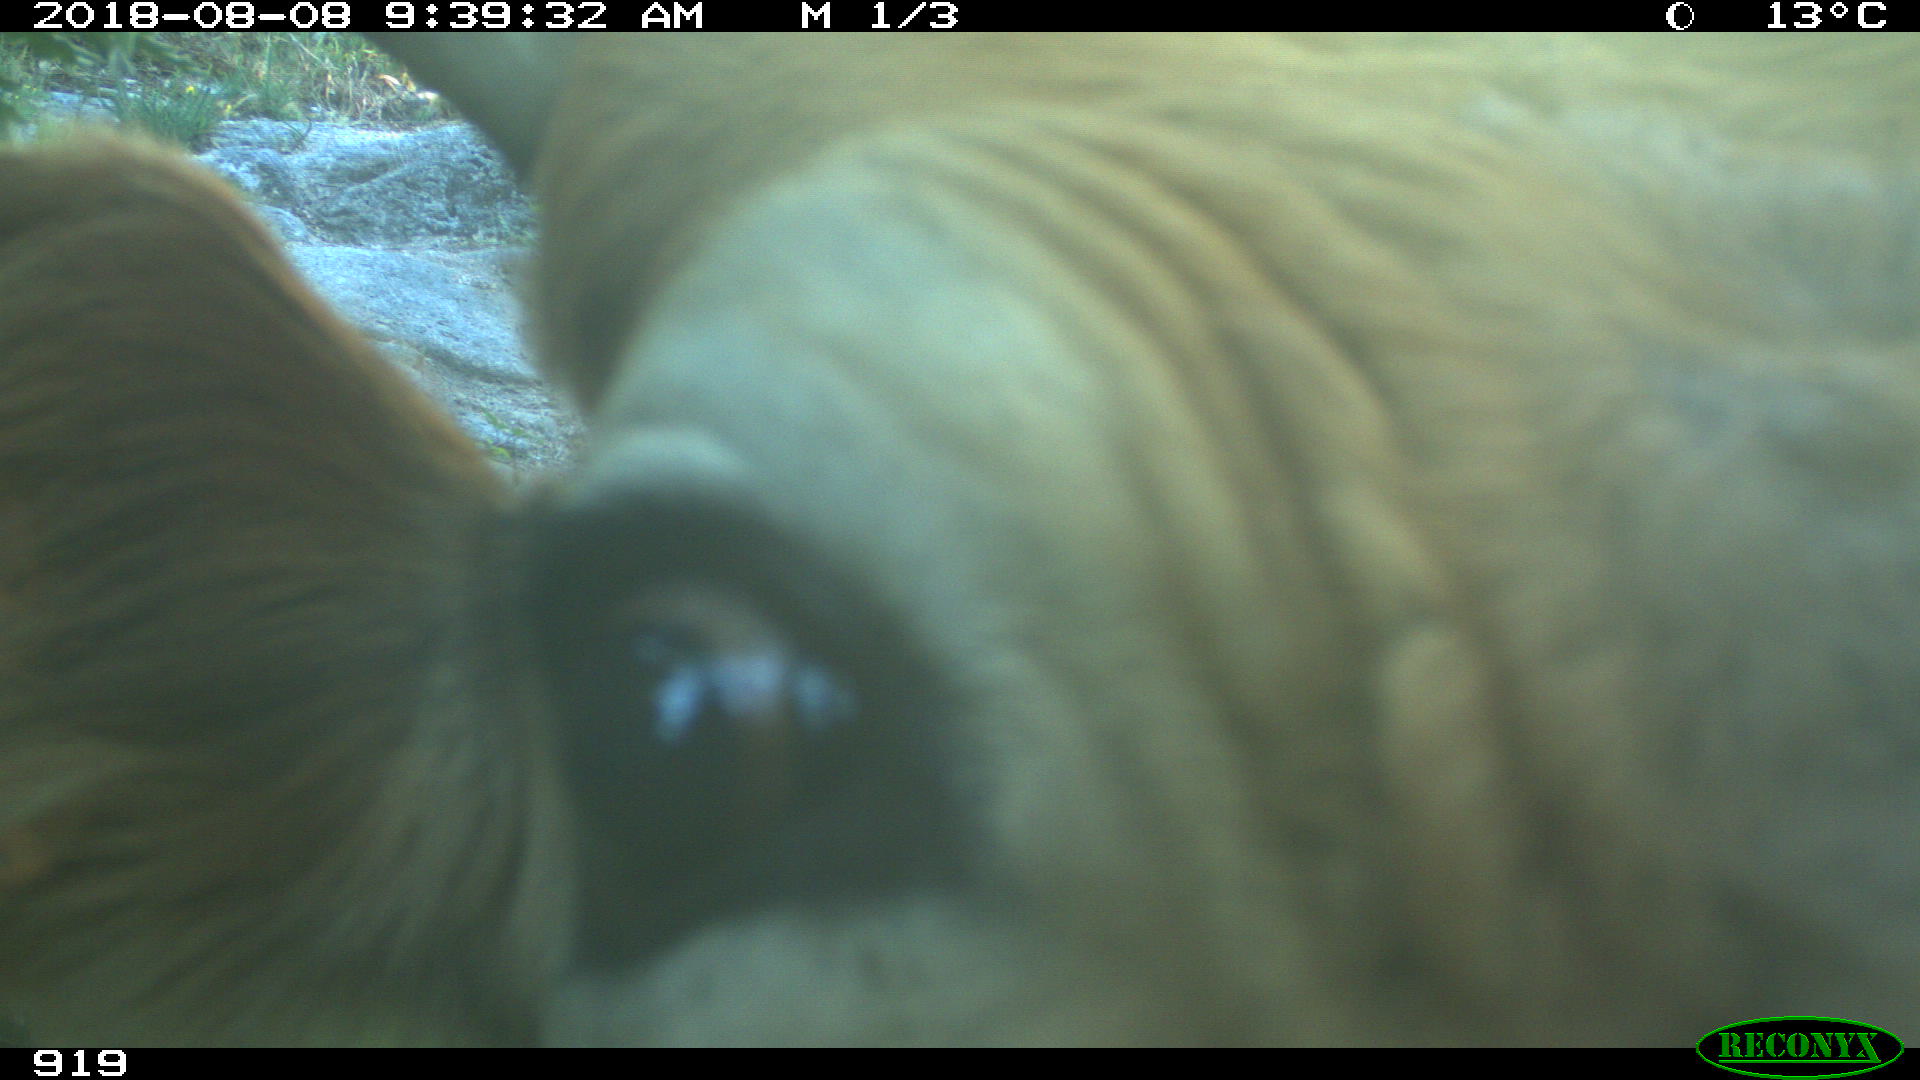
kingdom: Animalia
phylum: Chordata
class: Mammalia
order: Artiodactyla
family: Bovidae
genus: Bos
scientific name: Bos taurus
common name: Domesticated cattle
